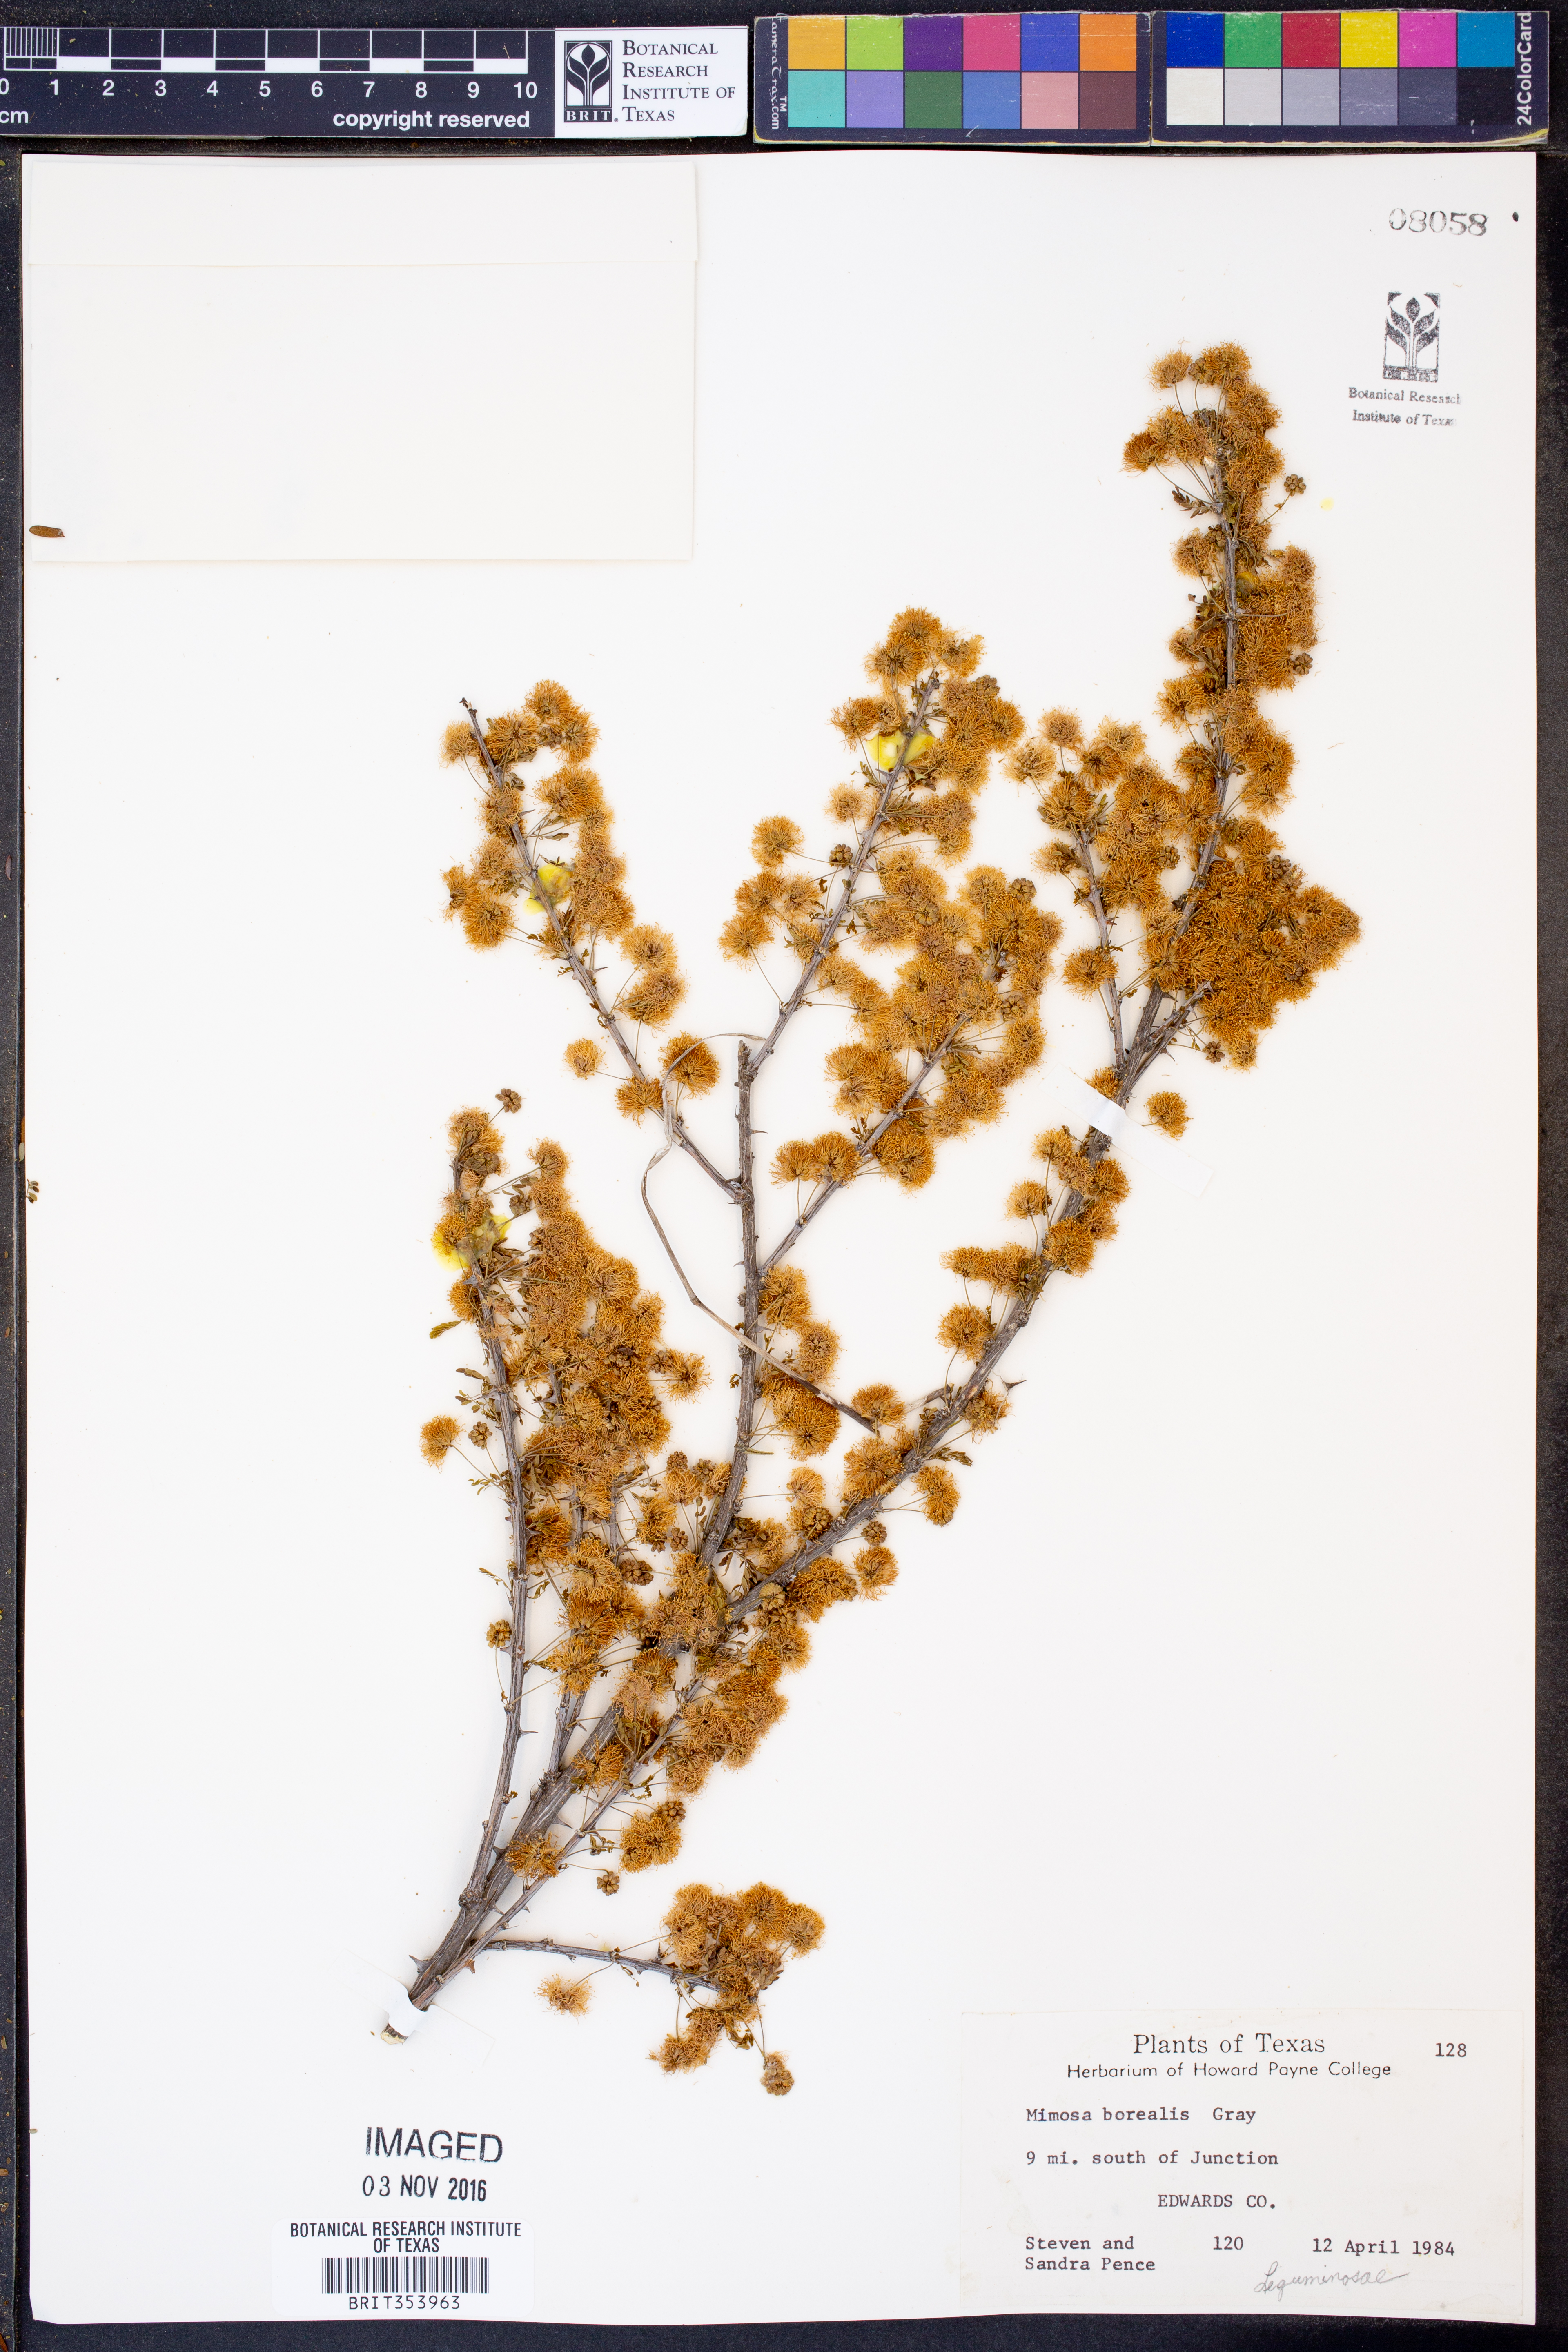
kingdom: Plantae
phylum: Tracheophyta
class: Magnoliopsida
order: Fabales
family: Fabaceae
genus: Mimosa
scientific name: Mimosa borealis
